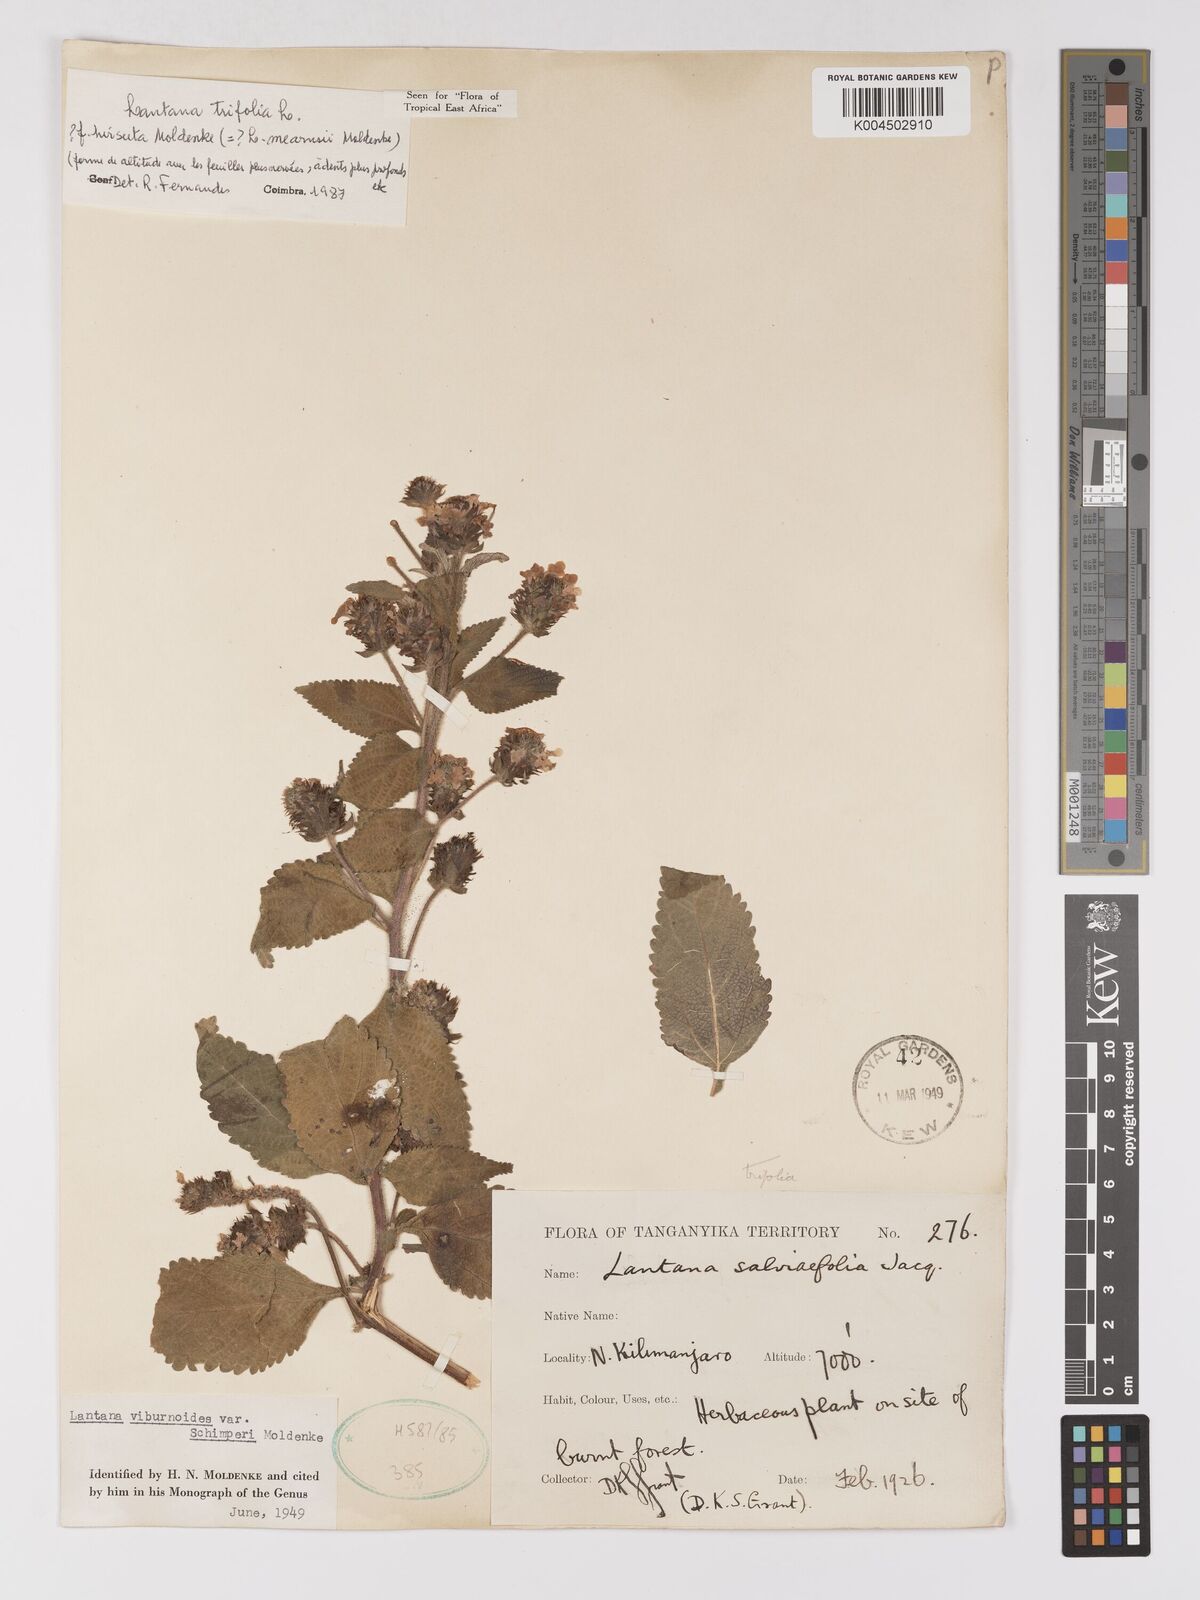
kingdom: Plantae
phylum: Tracheophyta
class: Magnoliopsida
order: Lamiales
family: Verbenaceae
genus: Lantana
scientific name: Lantana trifolia
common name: Sweet-sage
